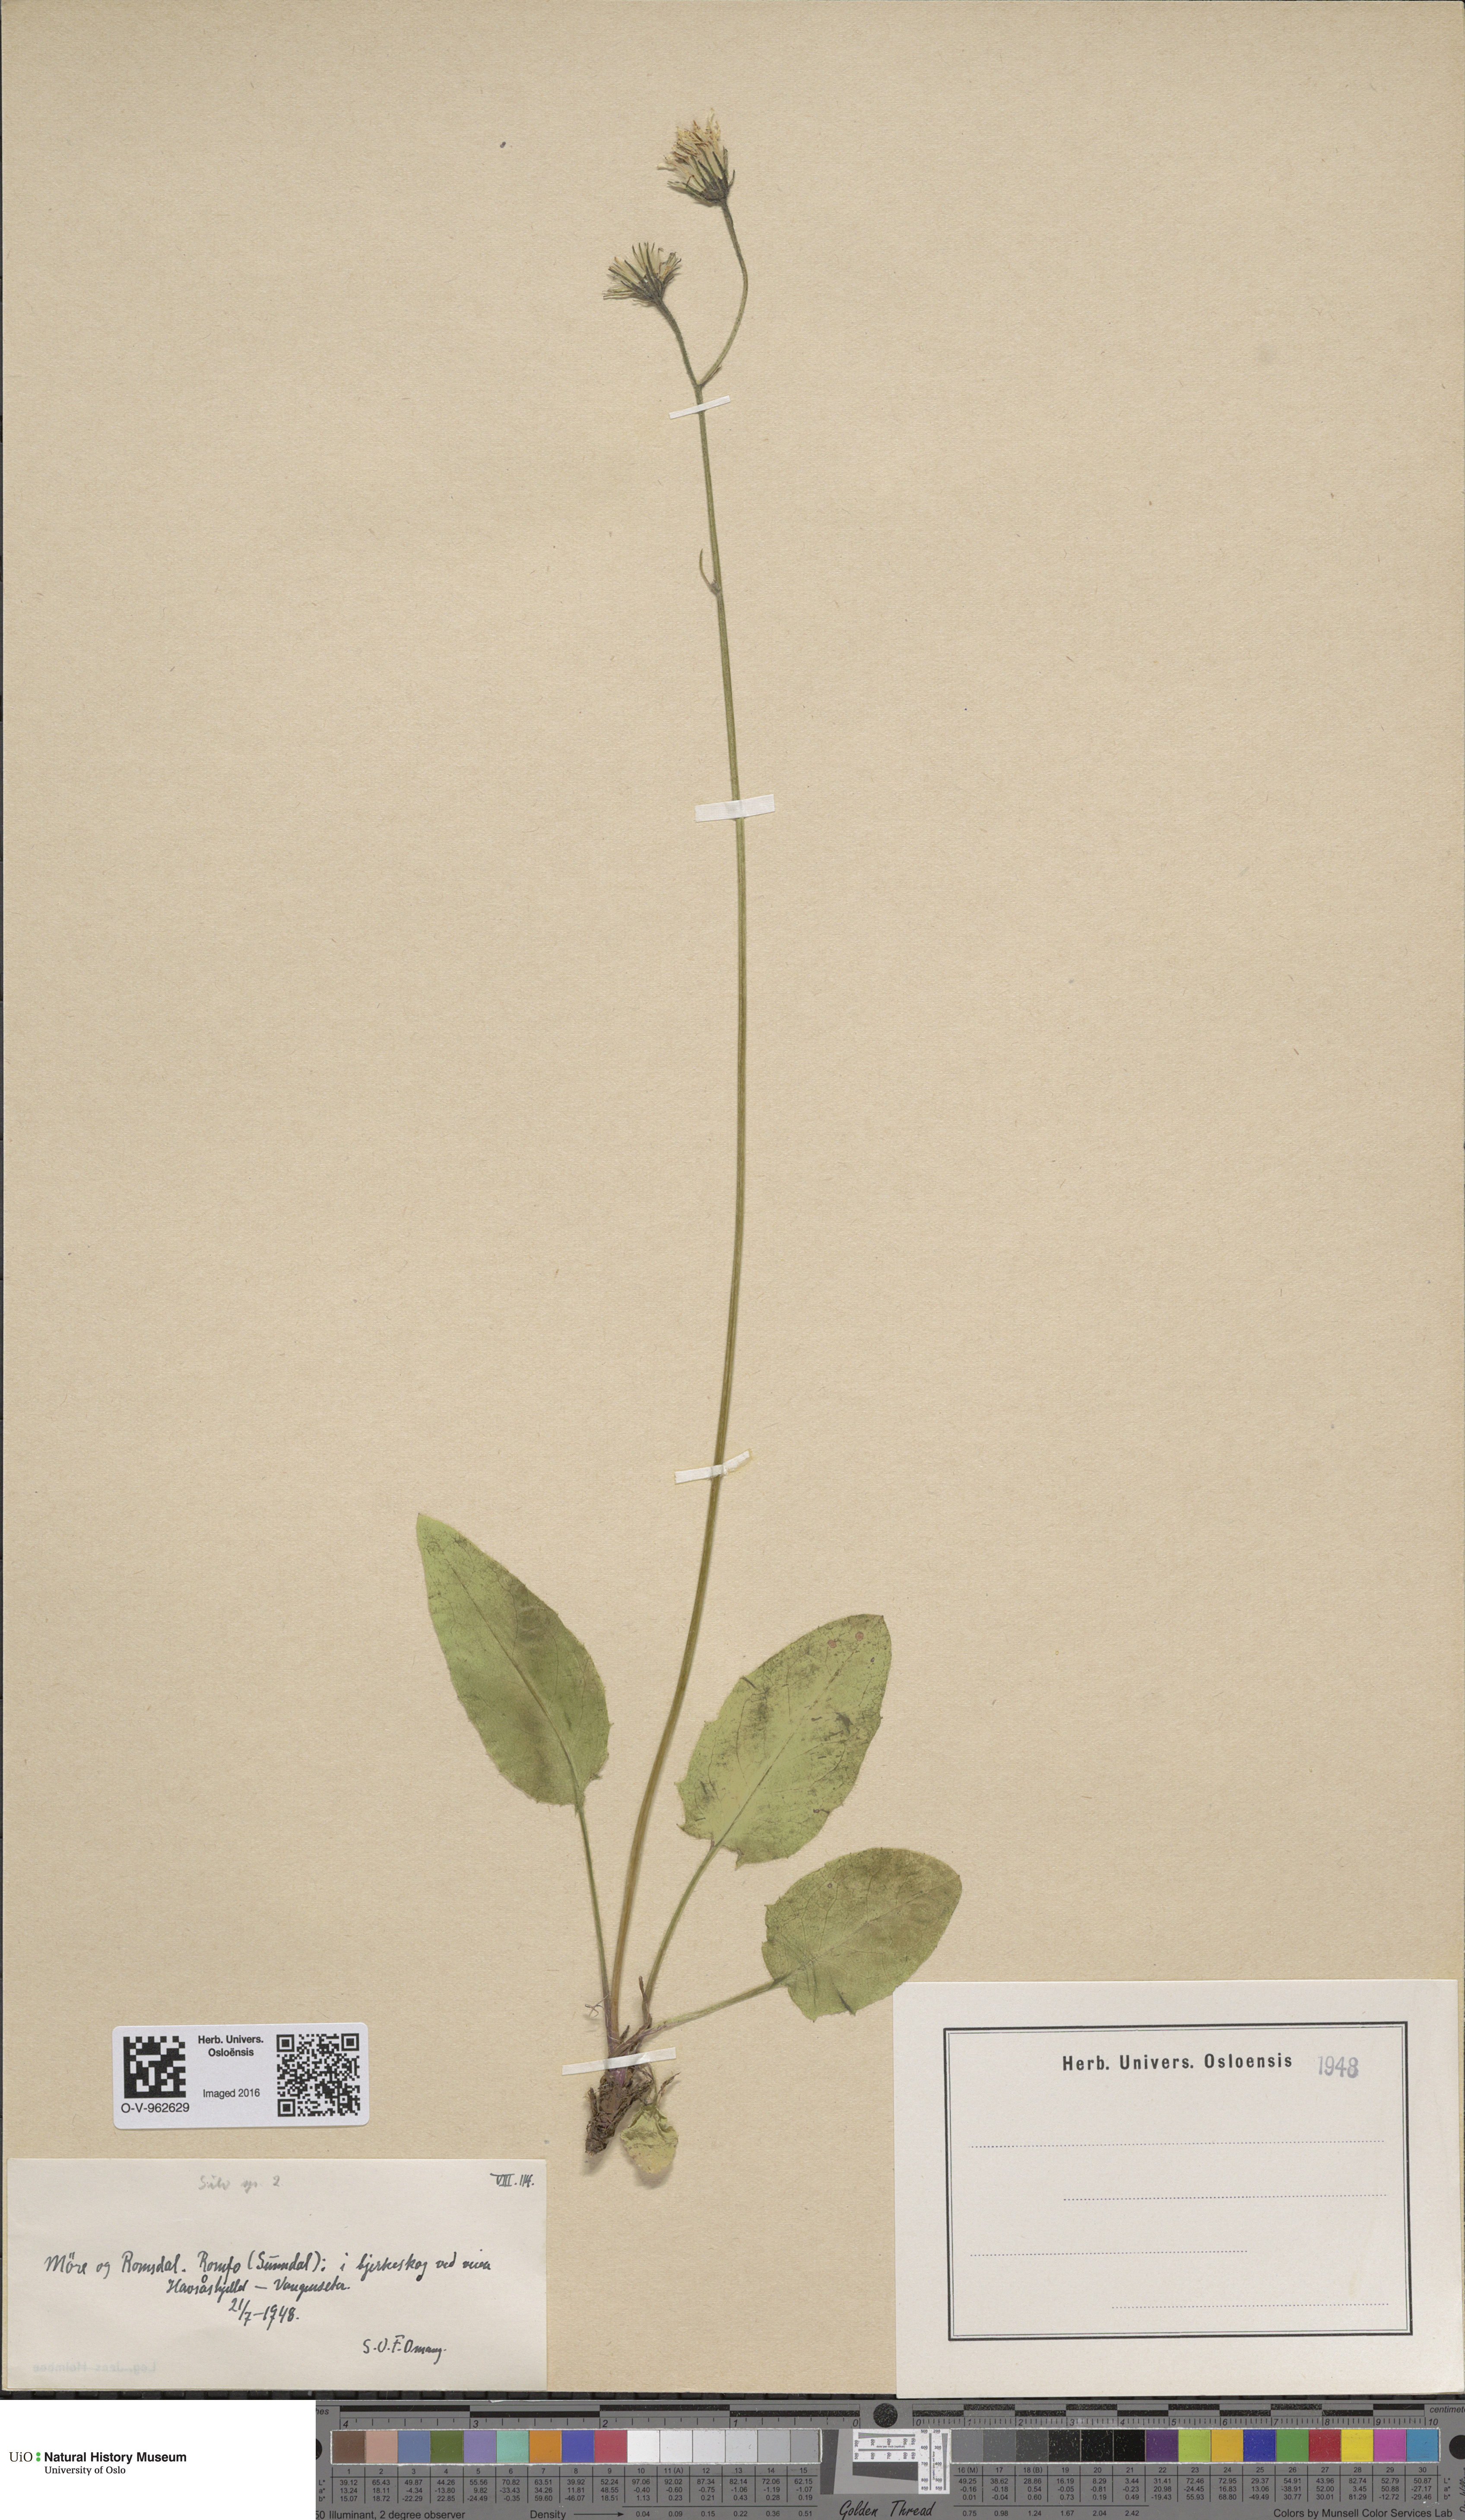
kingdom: Plantae
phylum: Tracheophyta
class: Magnoliopsida
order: Asterales
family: Asteraceae
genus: Hieracium
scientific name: Hieracium
